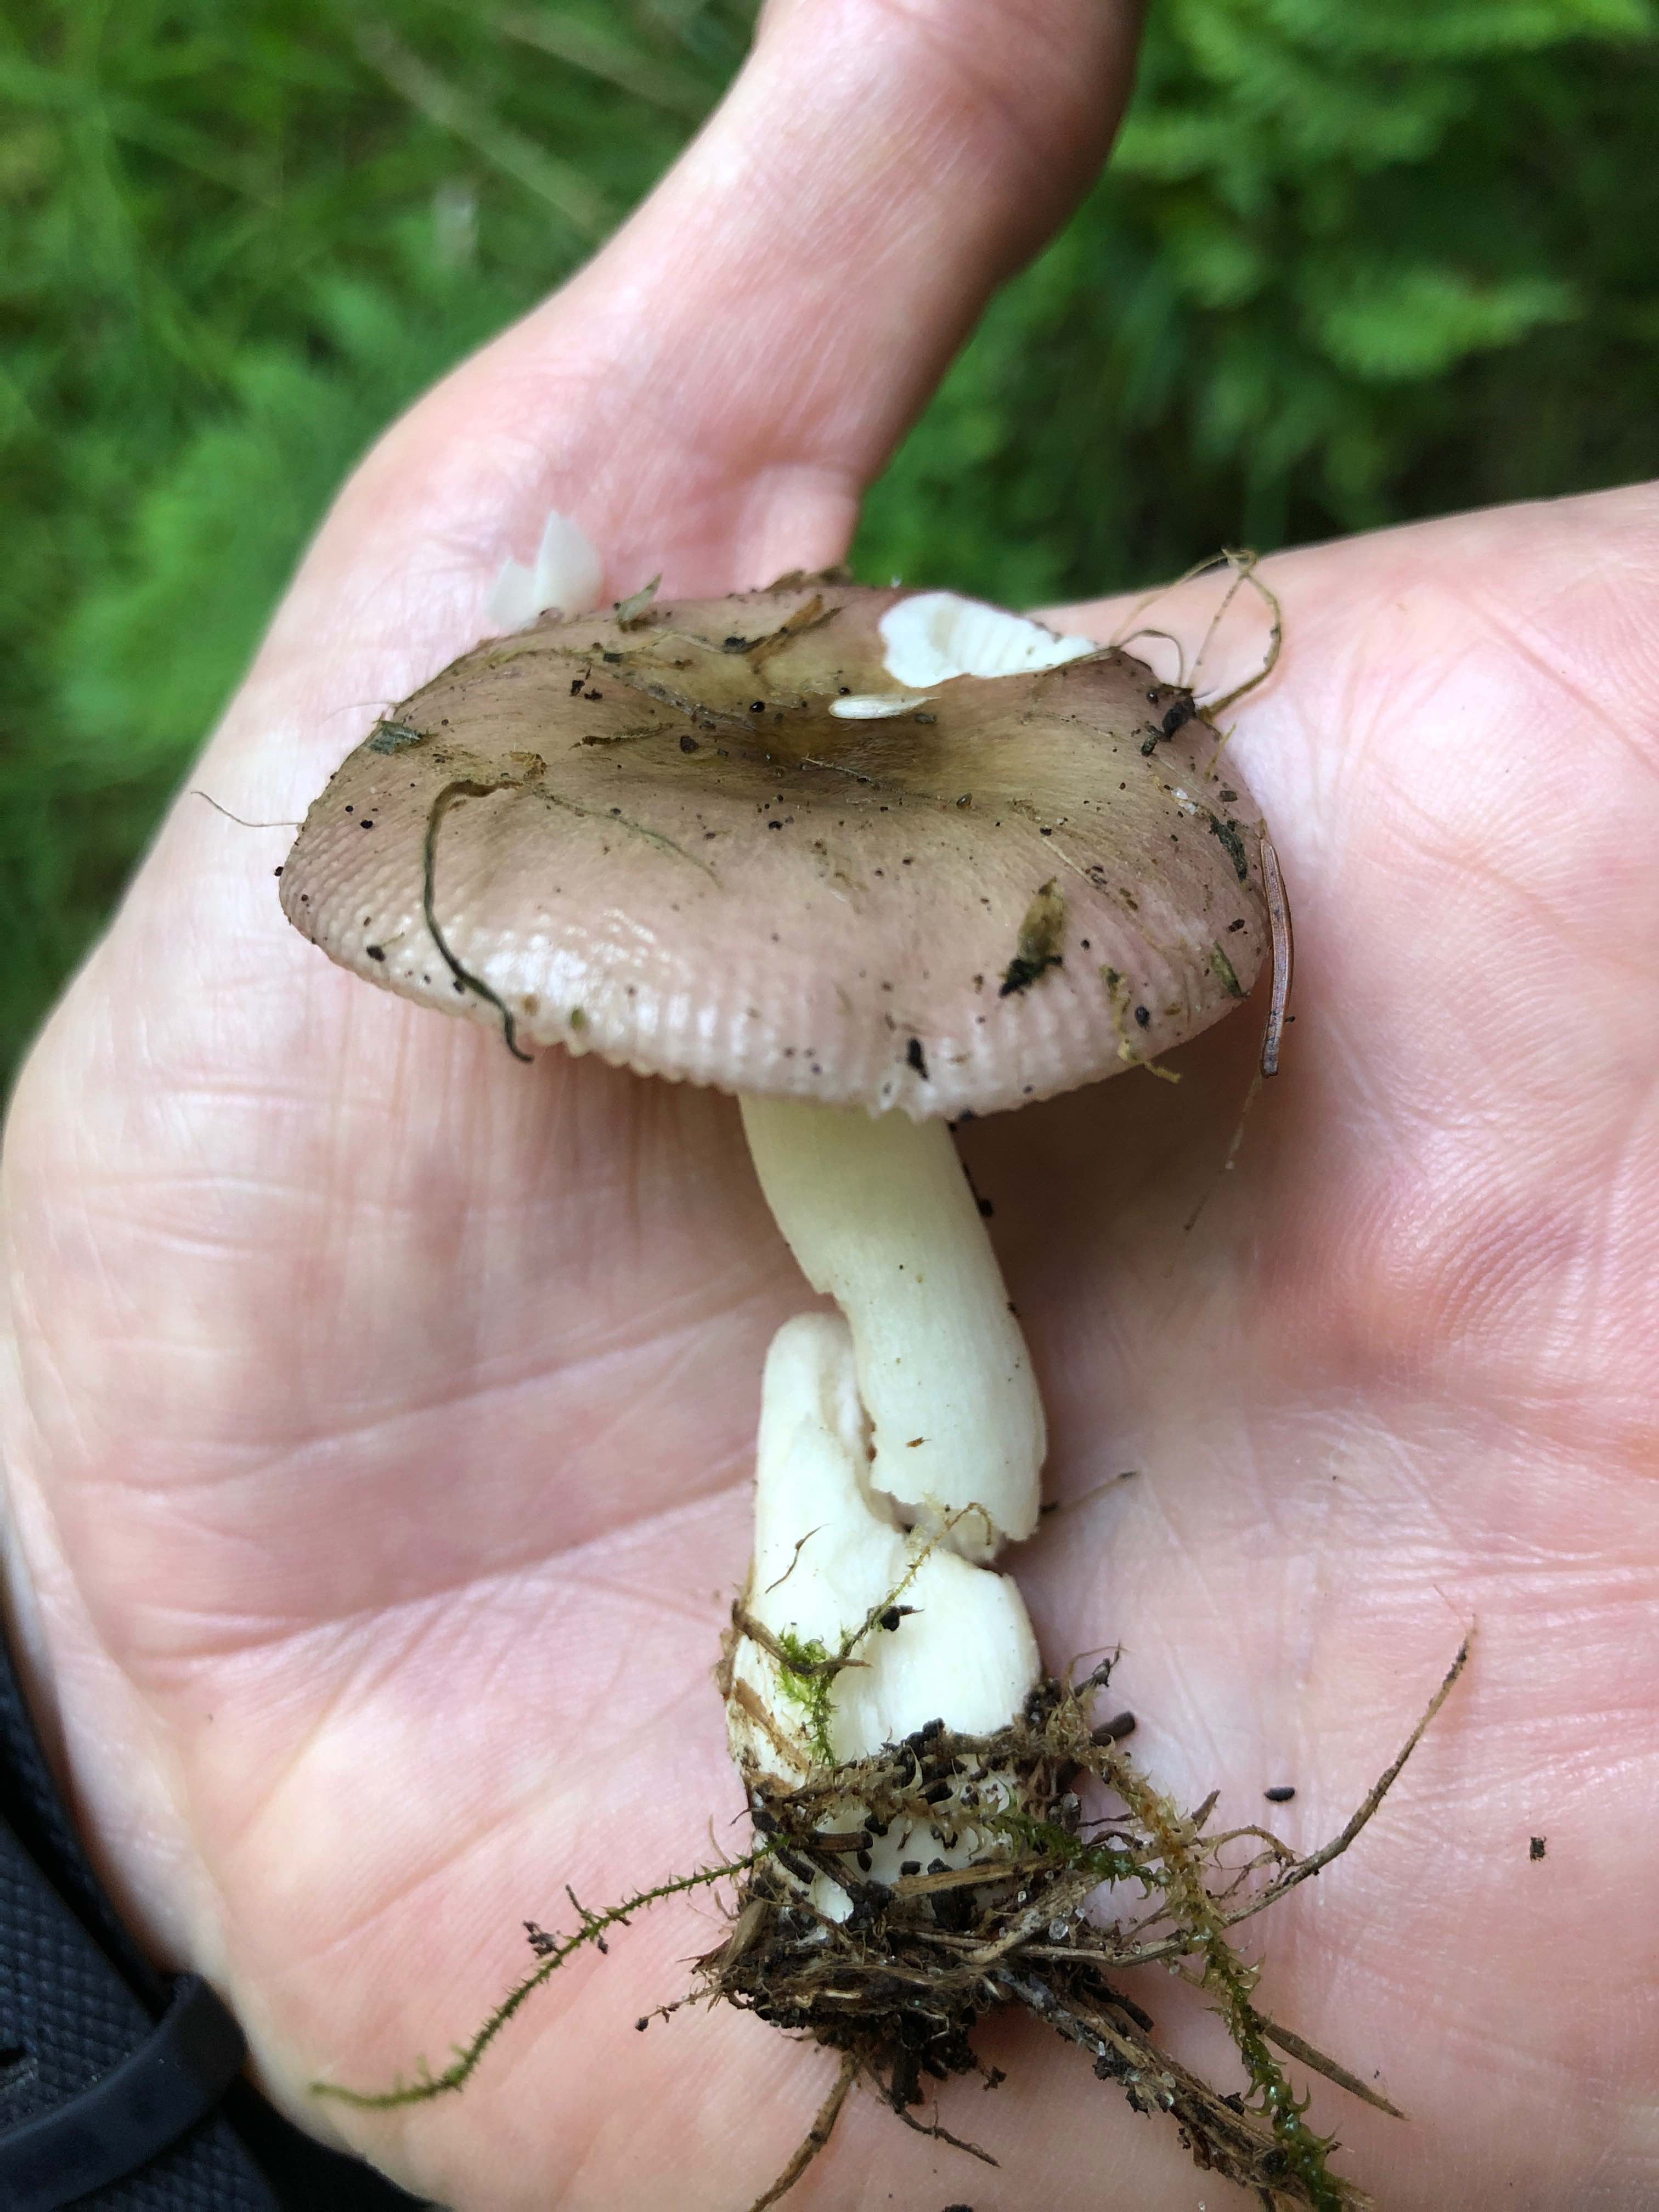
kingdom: Fungi
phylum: Basidiomycota
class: Agaricomycetes
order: Russulales
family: Russulaceae
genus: Russula
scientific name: Russula
